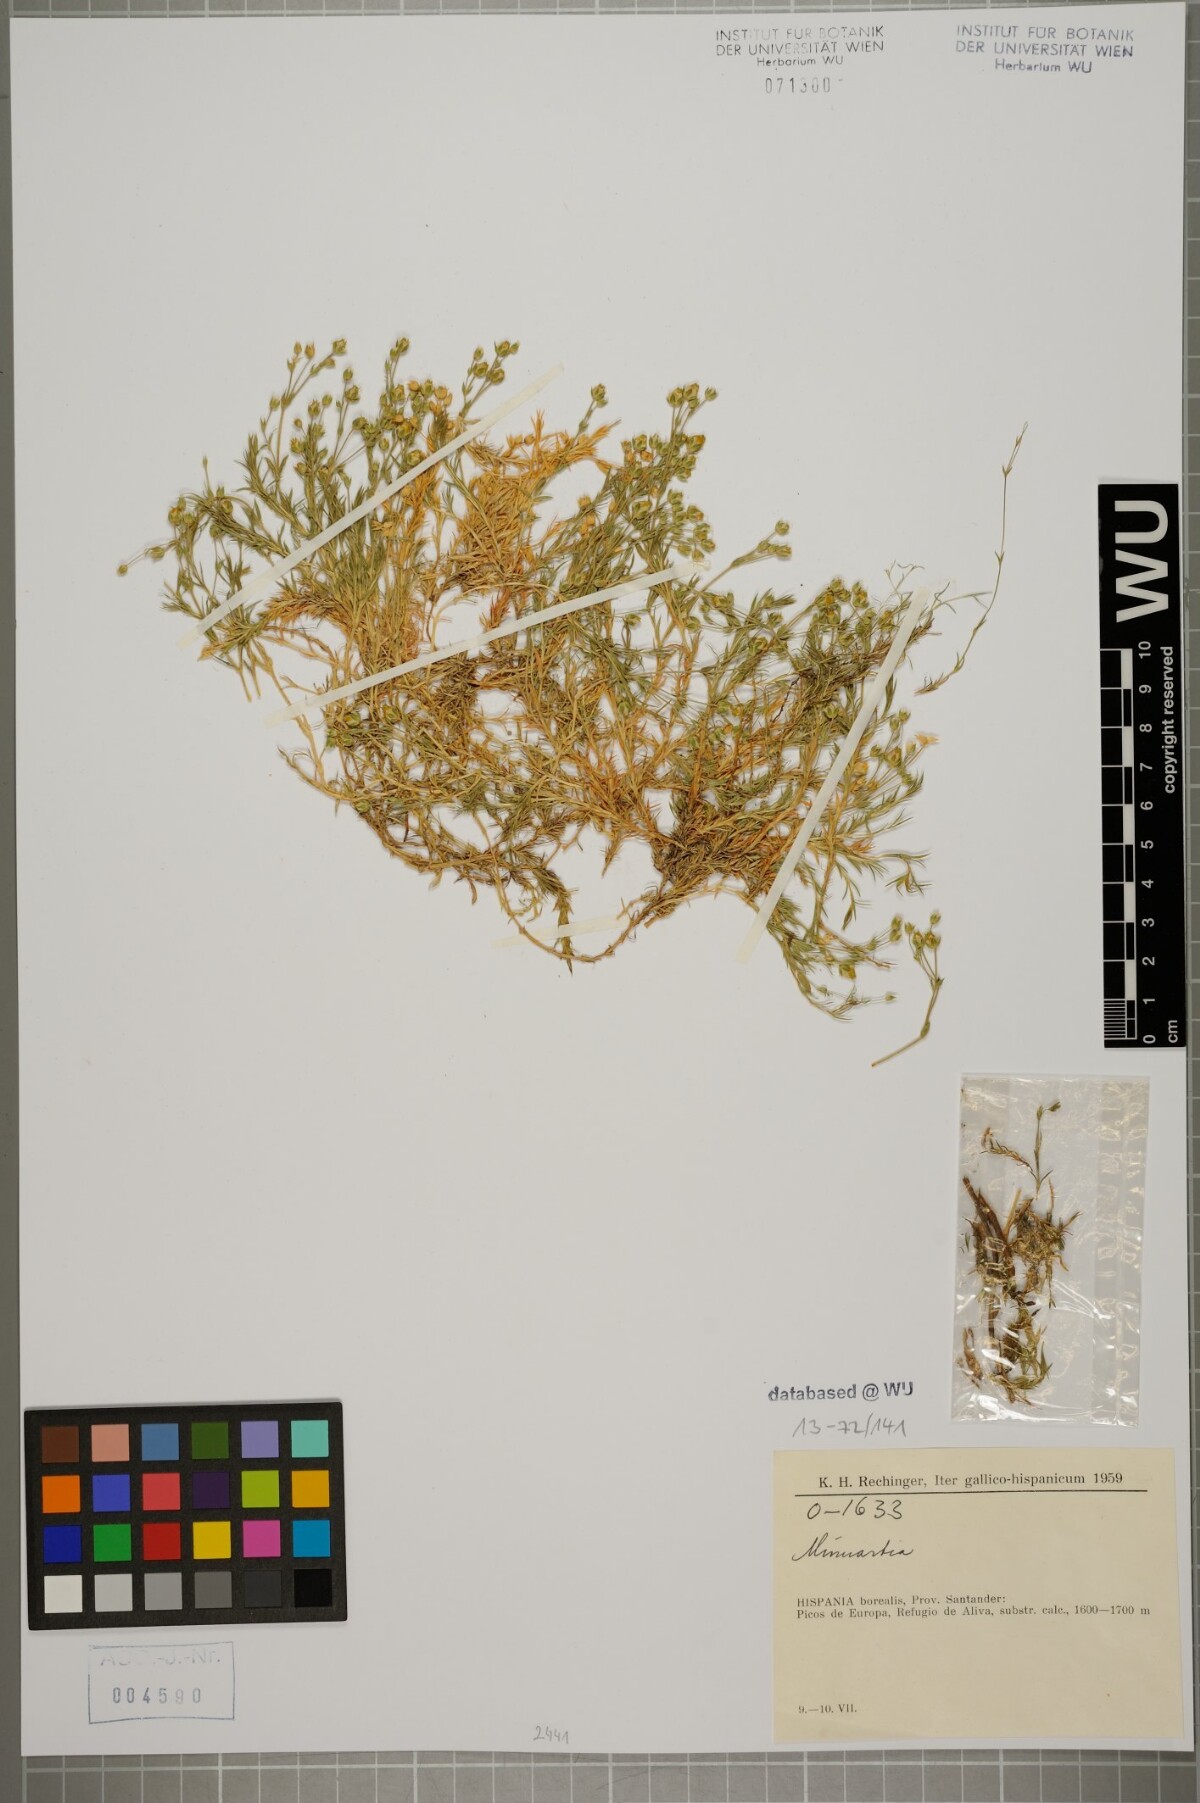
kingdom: Plantae
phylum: Tracheophyta
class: Magnoliopsida
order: Caryophyllales
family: Caryophyllaceae
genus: Arenaria
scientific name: Arenaria grandiflora
